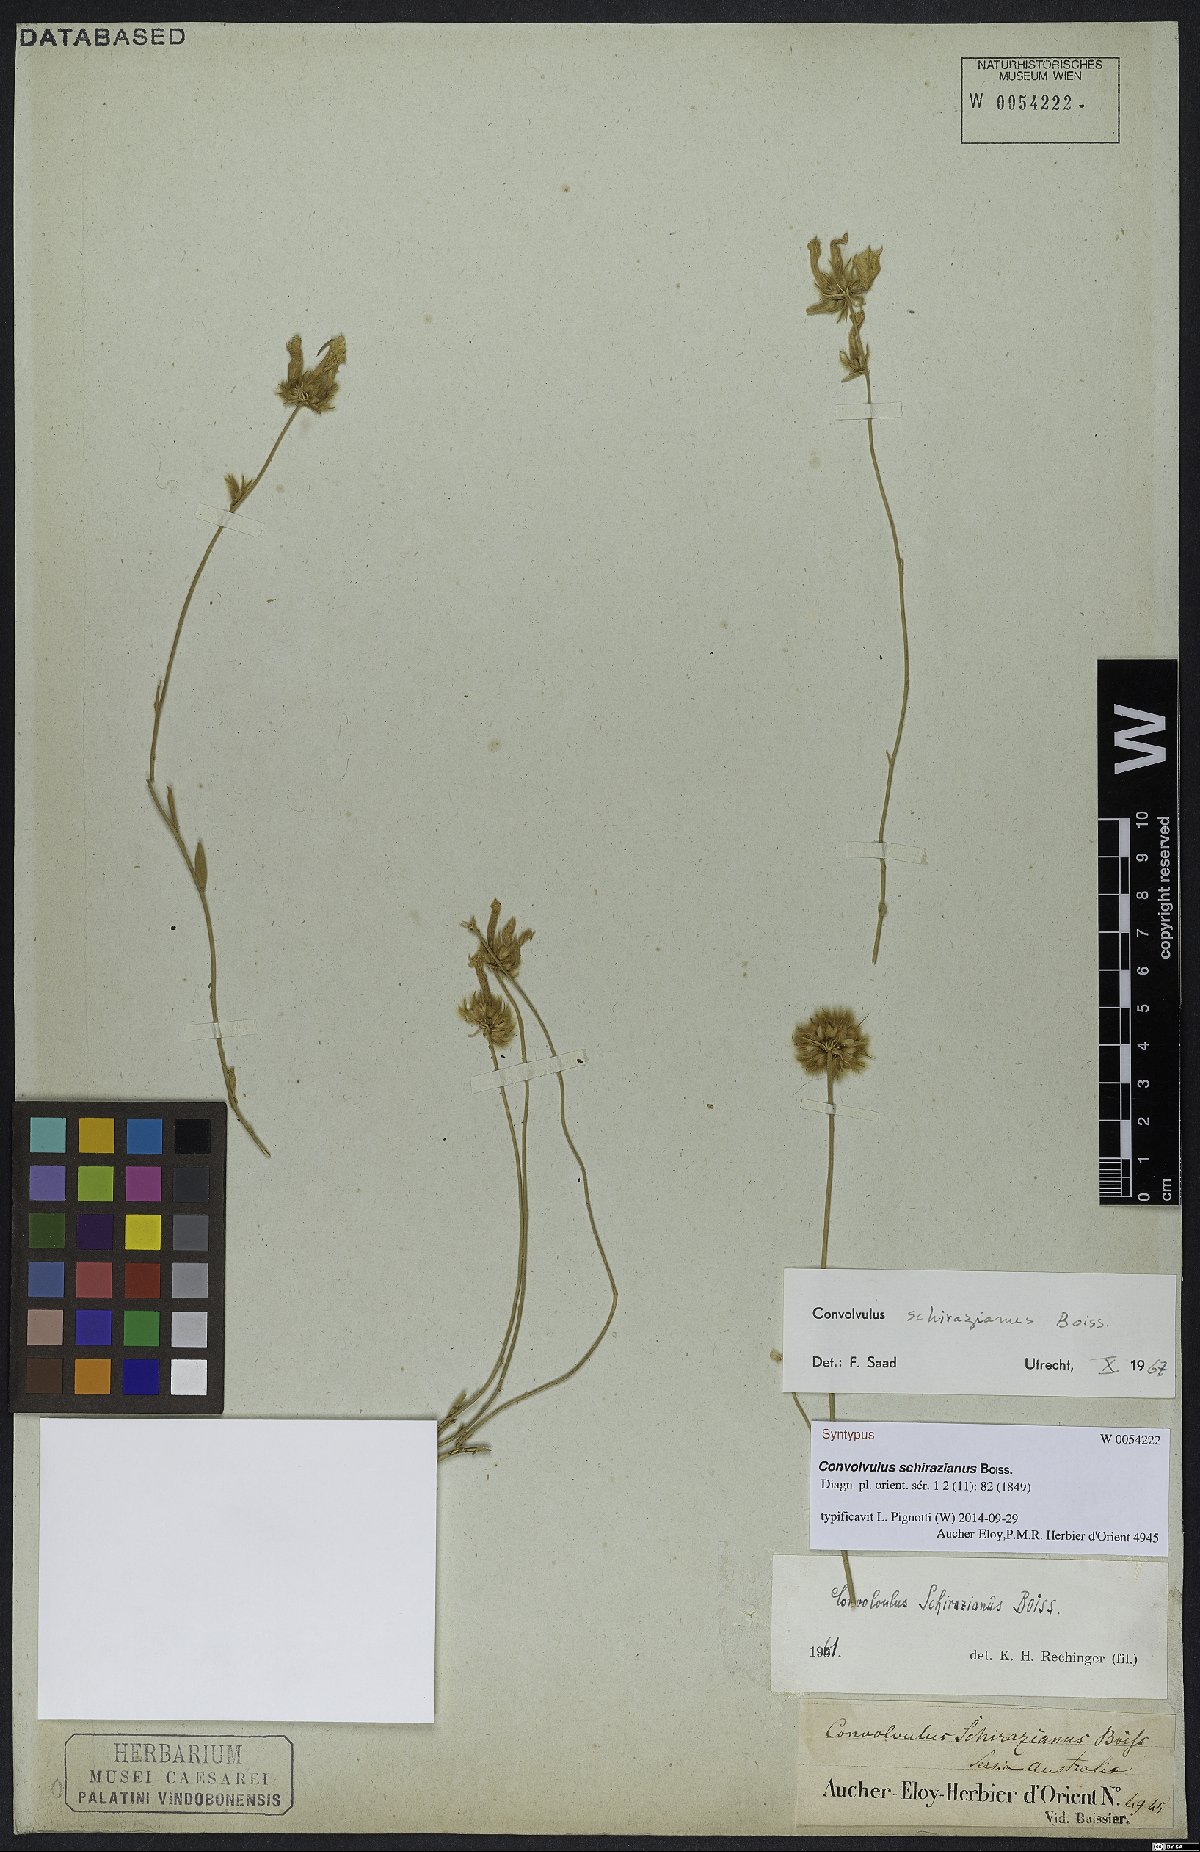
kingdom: Plantae
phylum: Tracheophyta
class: Magnoliopsida
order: Solanales
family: Convolvulaceae
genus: Convolvulus
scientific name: Convolvulus schirazianus
